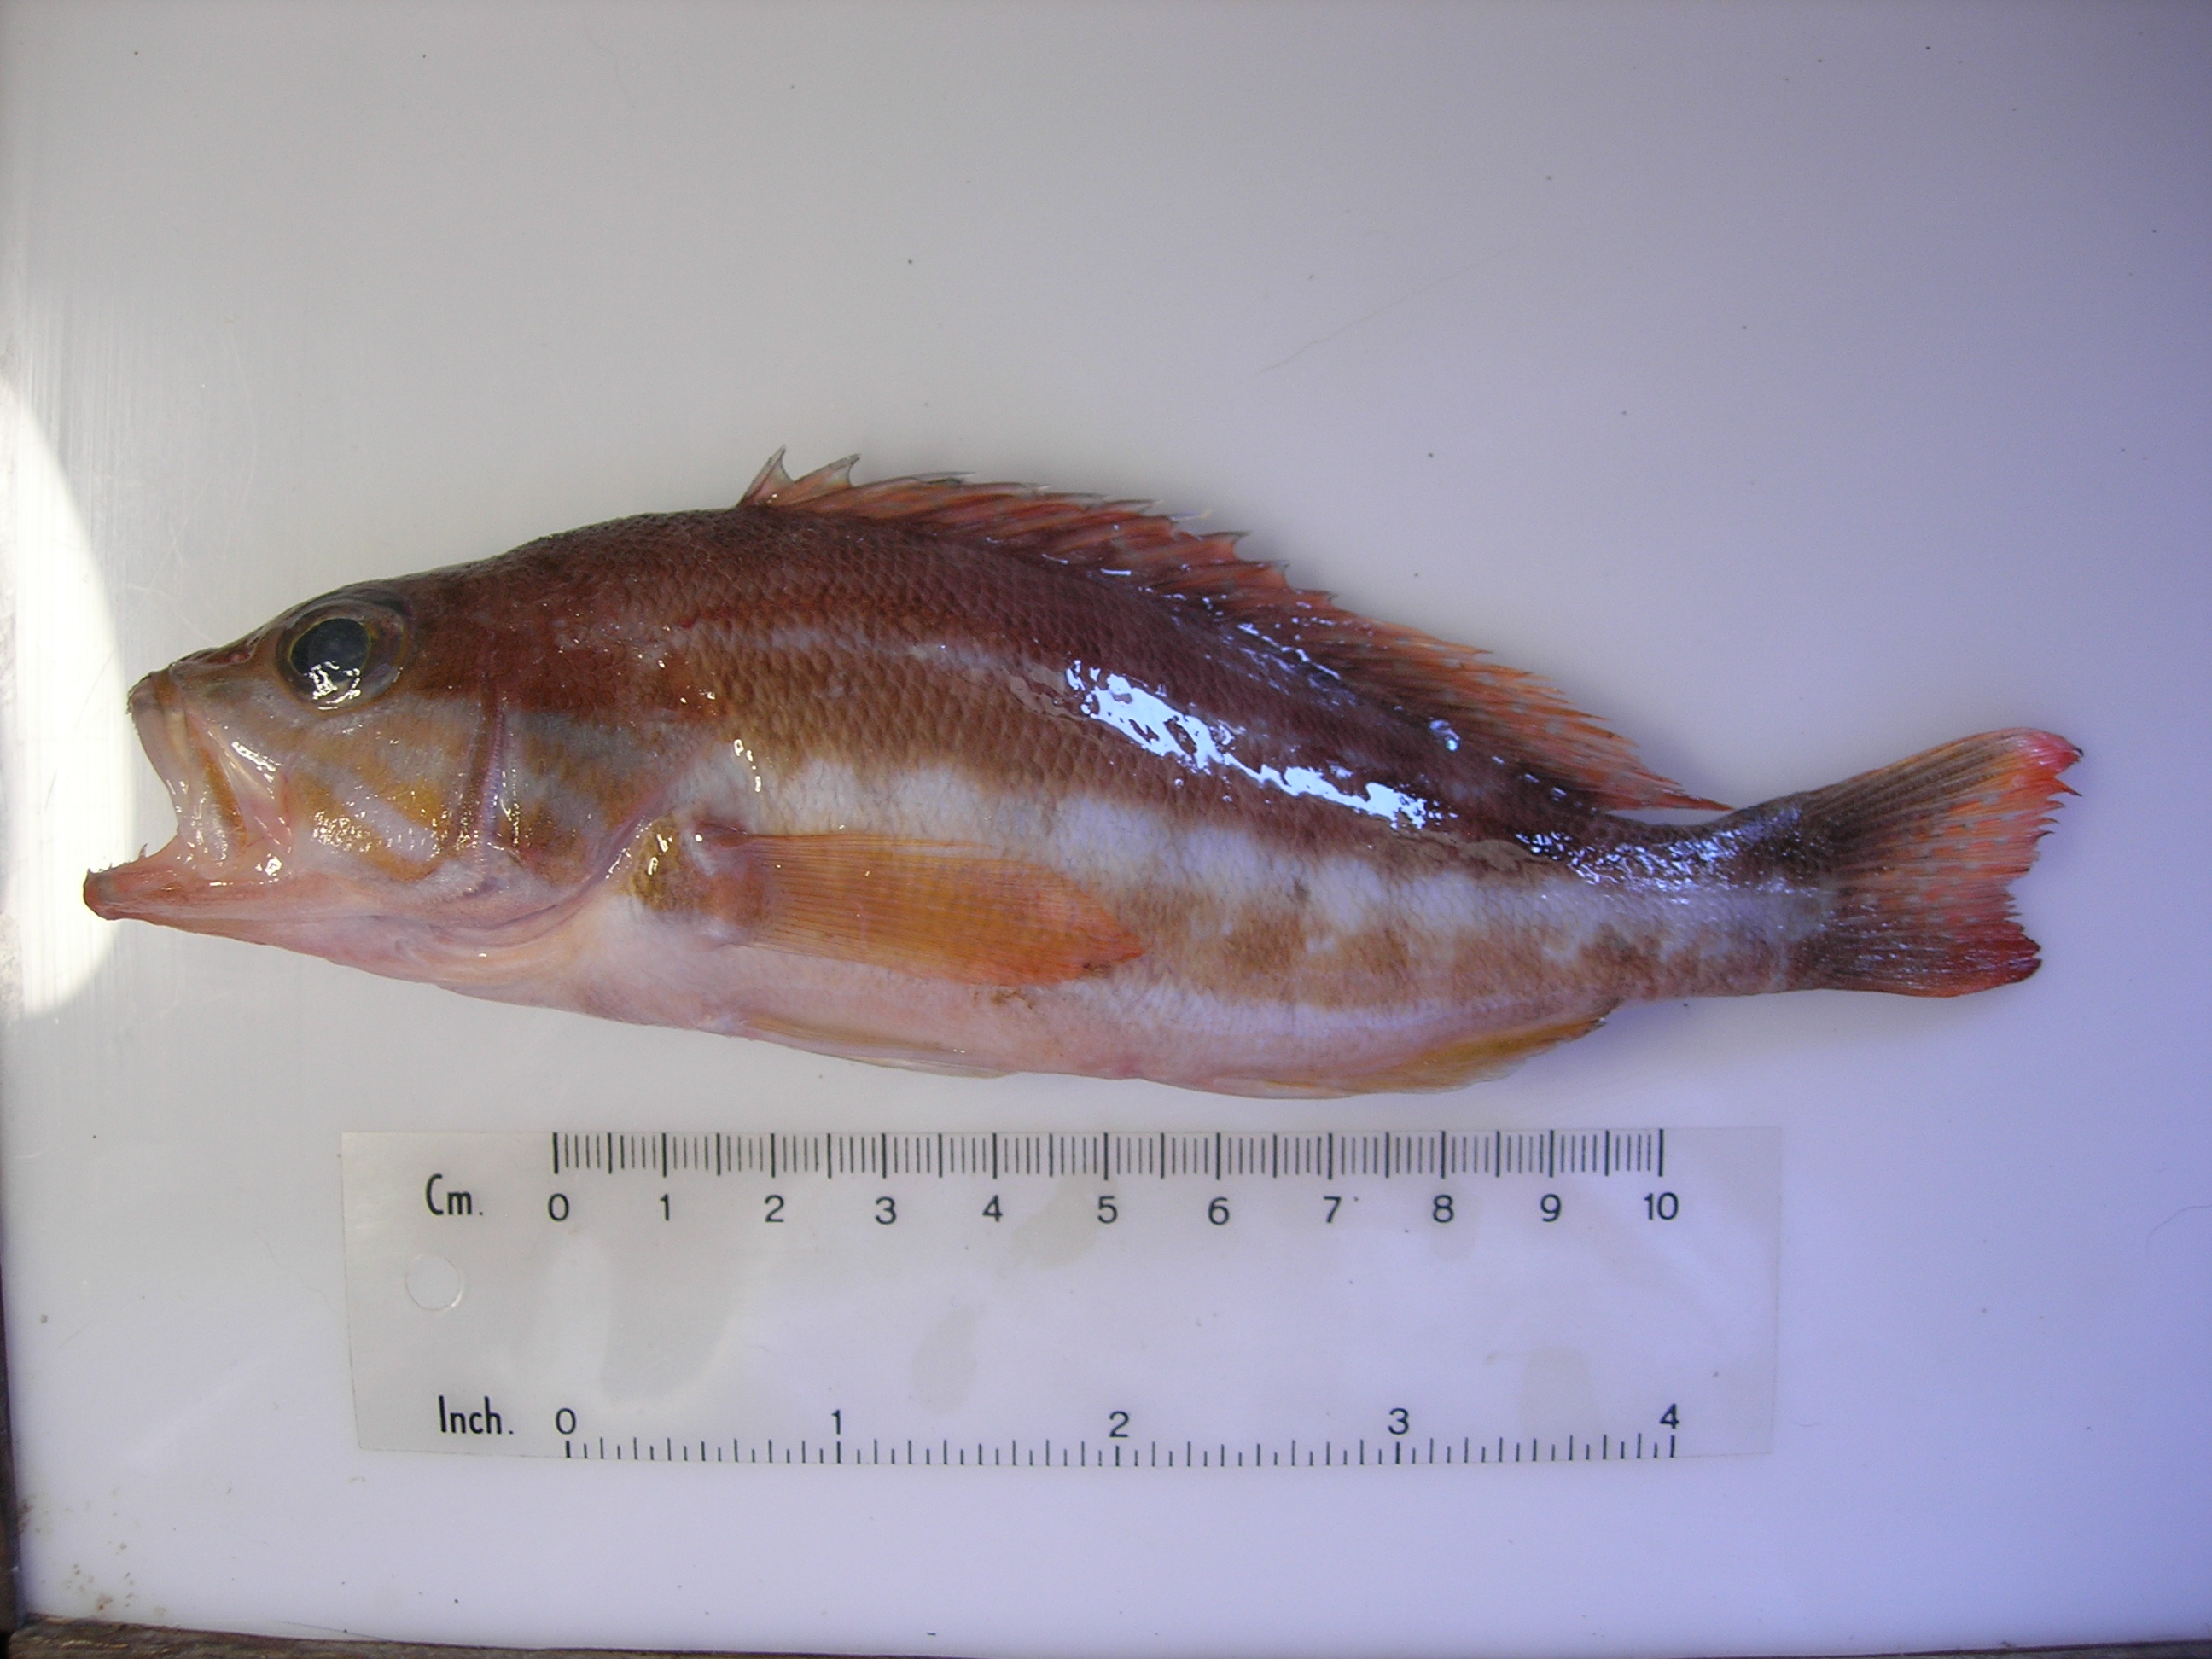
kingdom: Animalia
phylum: Chordata
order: Perciformes
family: Serranidae
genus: Serranus
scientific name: Serranus cabrilla
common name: Comber
